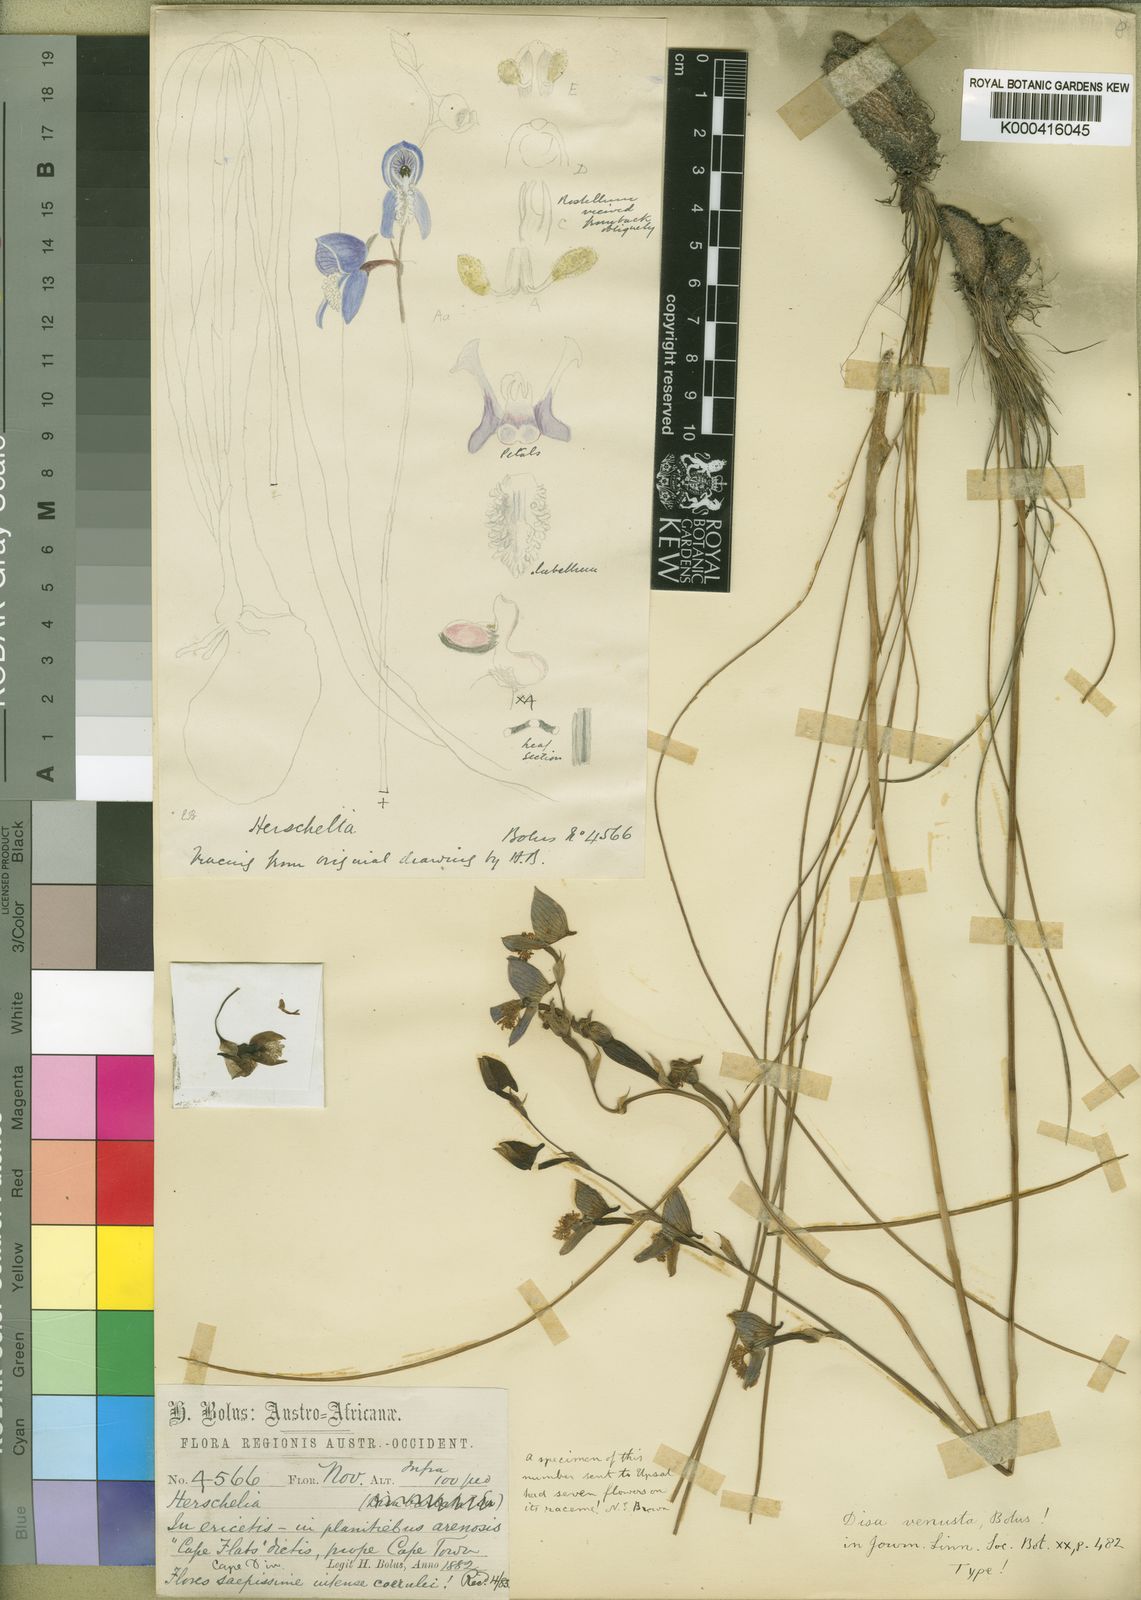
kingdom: Plantae
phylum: Tracheophyta
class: Liliopsida
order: Asparagales
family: Orchidaceae
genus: Disa
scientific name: Disa venusta
